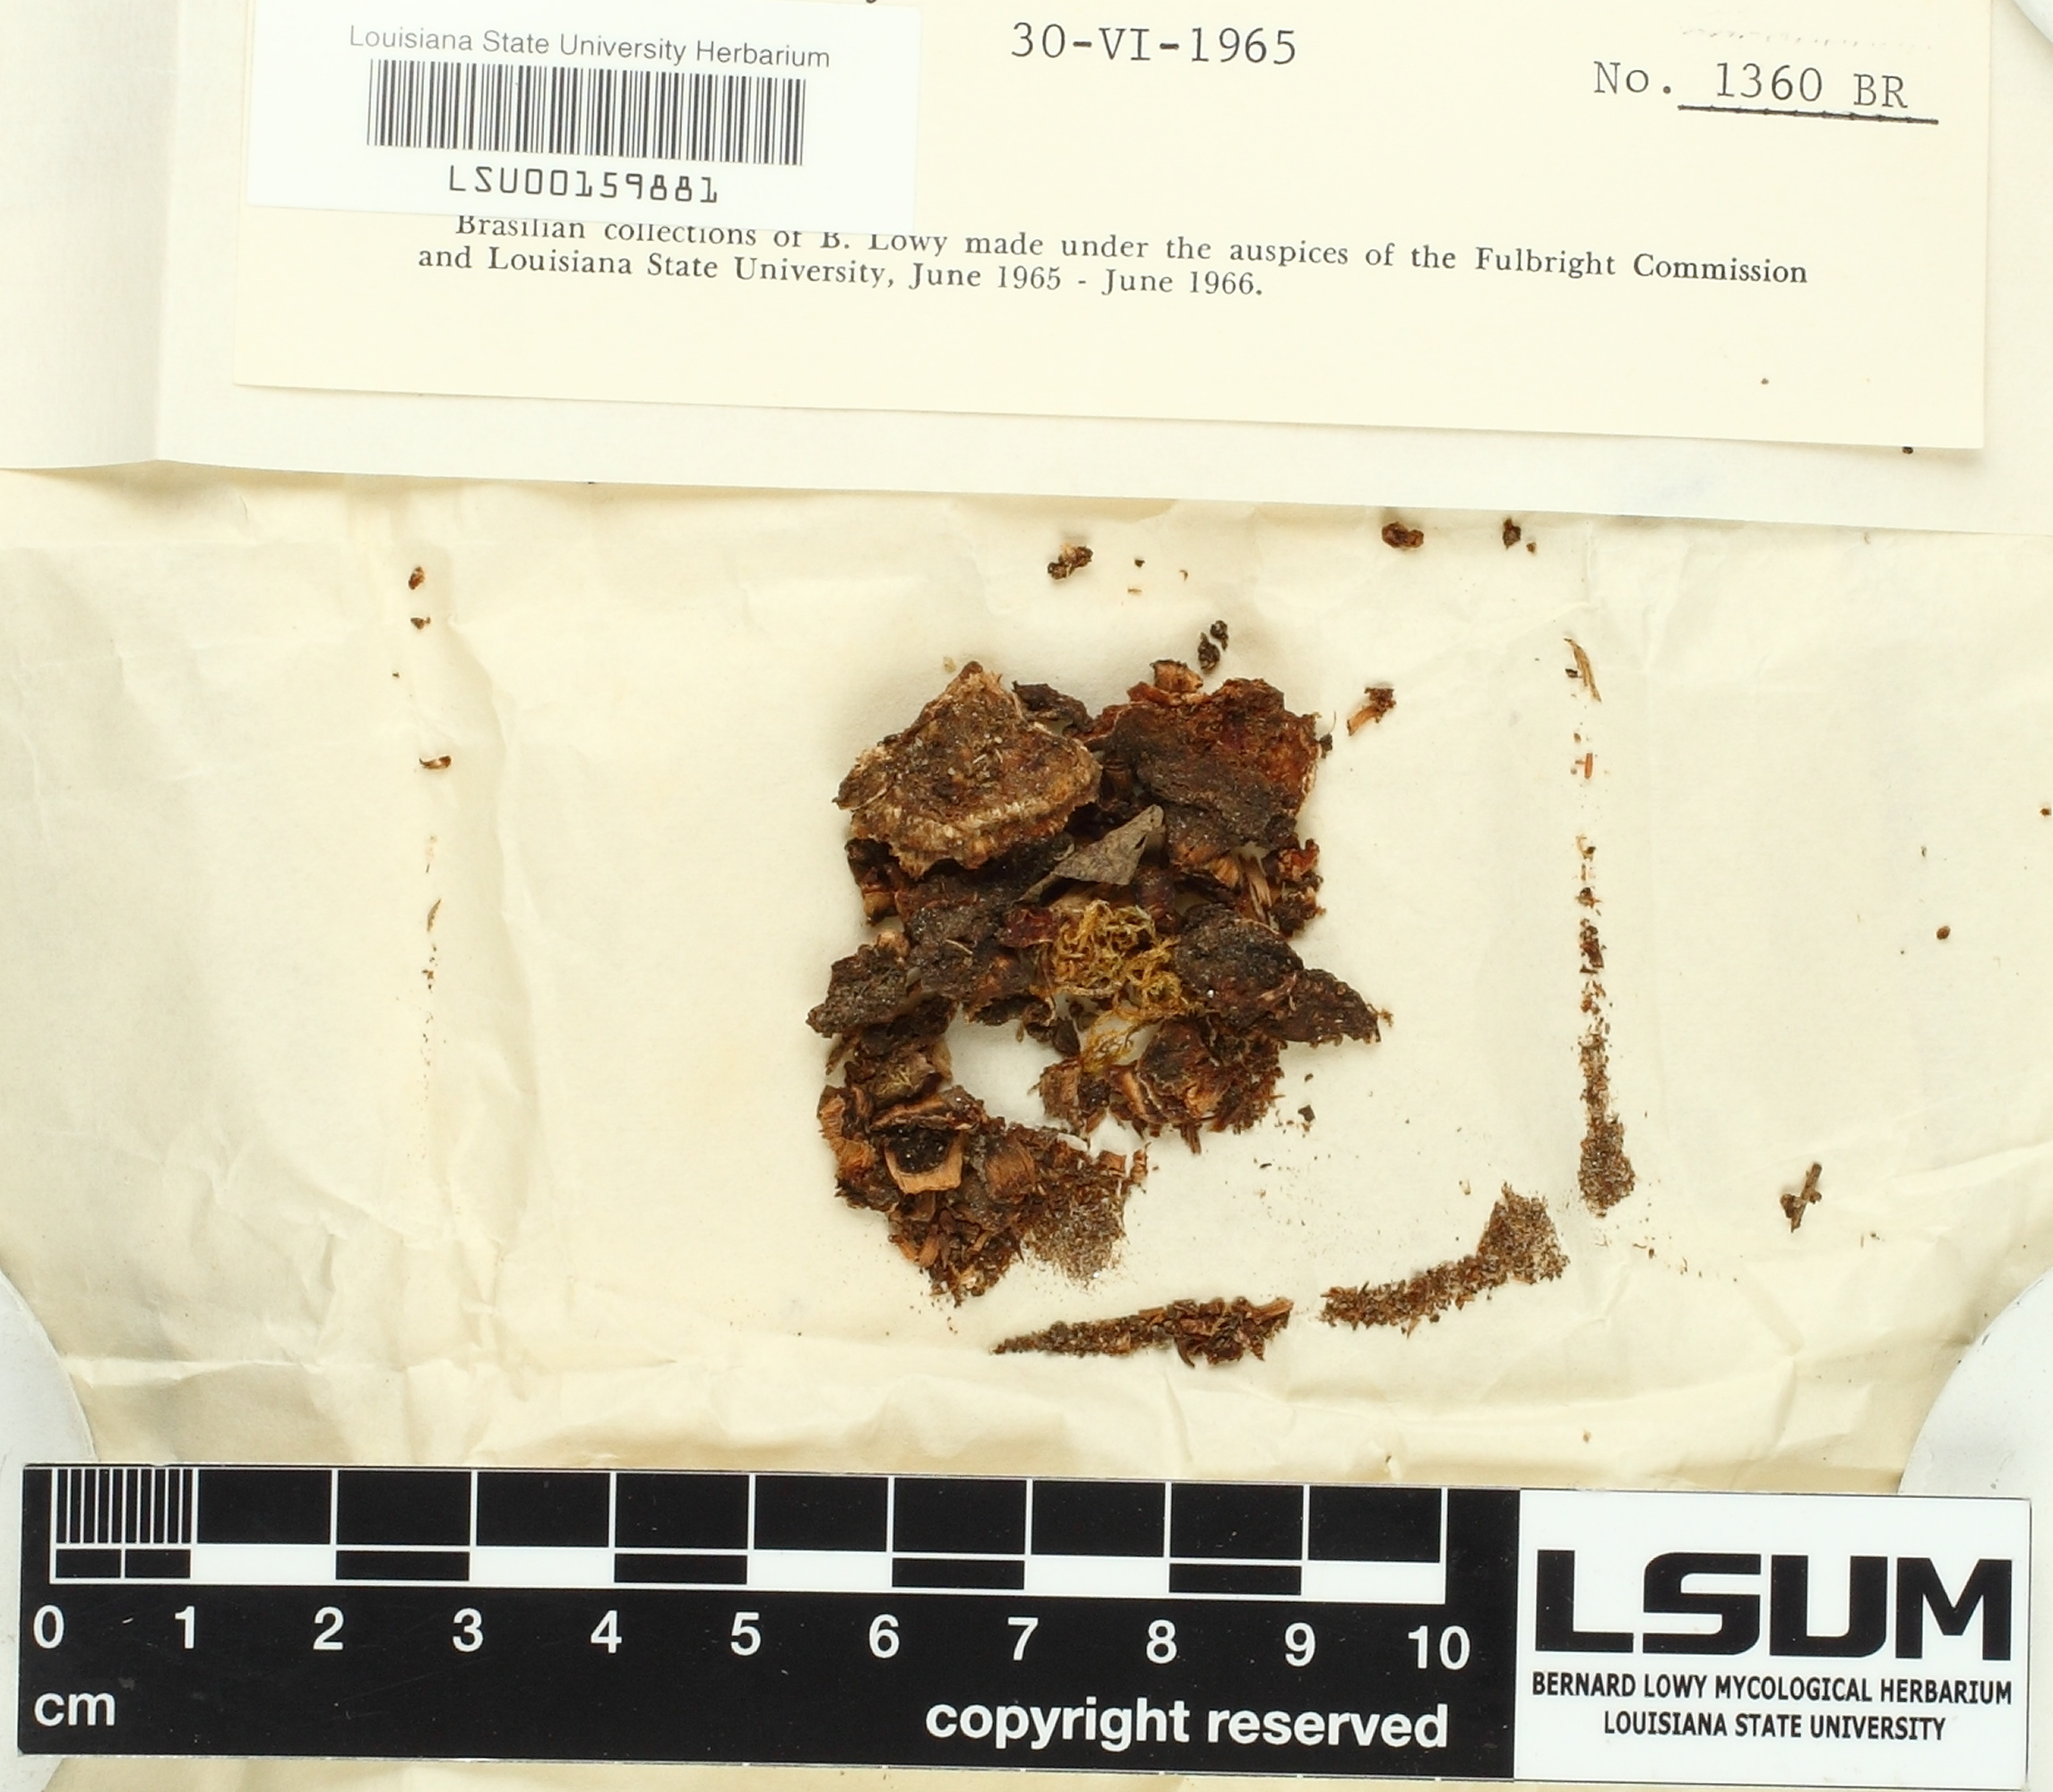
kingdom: Fungi
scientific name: Fungi
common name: Fungi
